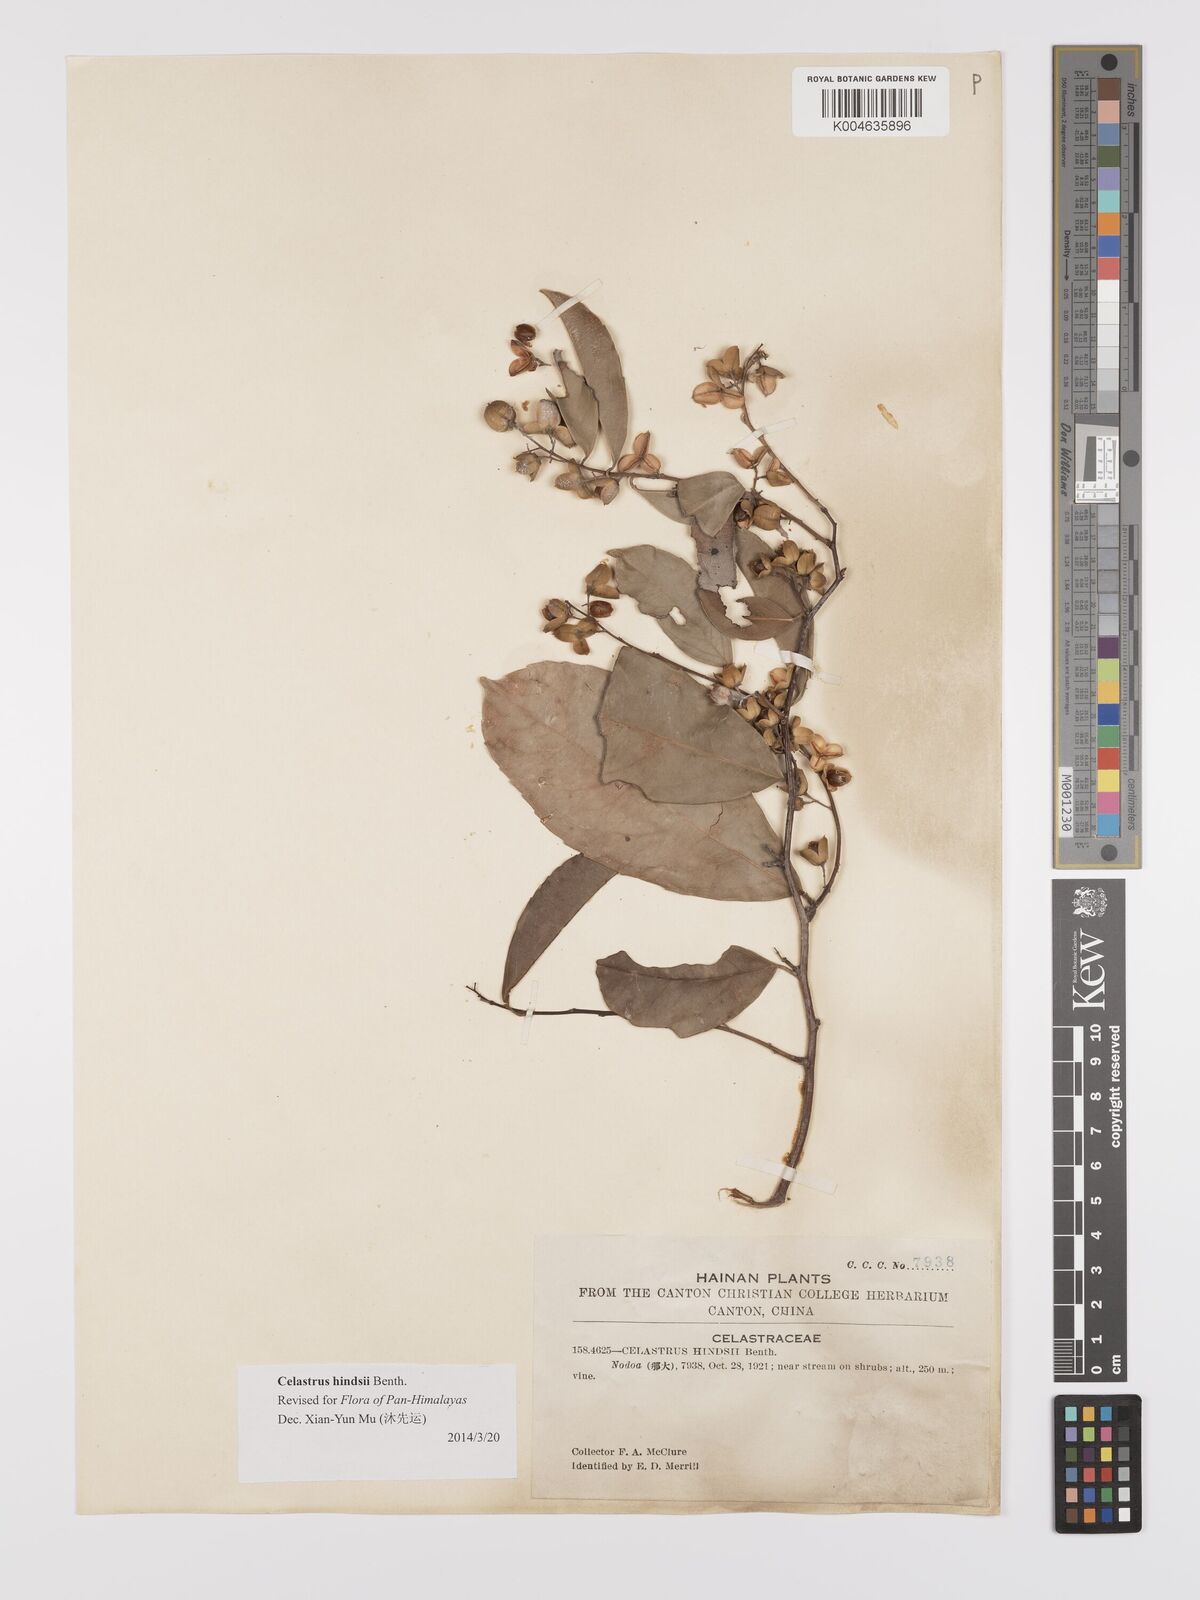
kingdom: Plantae
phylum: Tracheophyta
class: Magnoliopsida
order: Celastrales
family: Celastraceae
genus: Celastrus
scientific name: Celastrus hindsii
